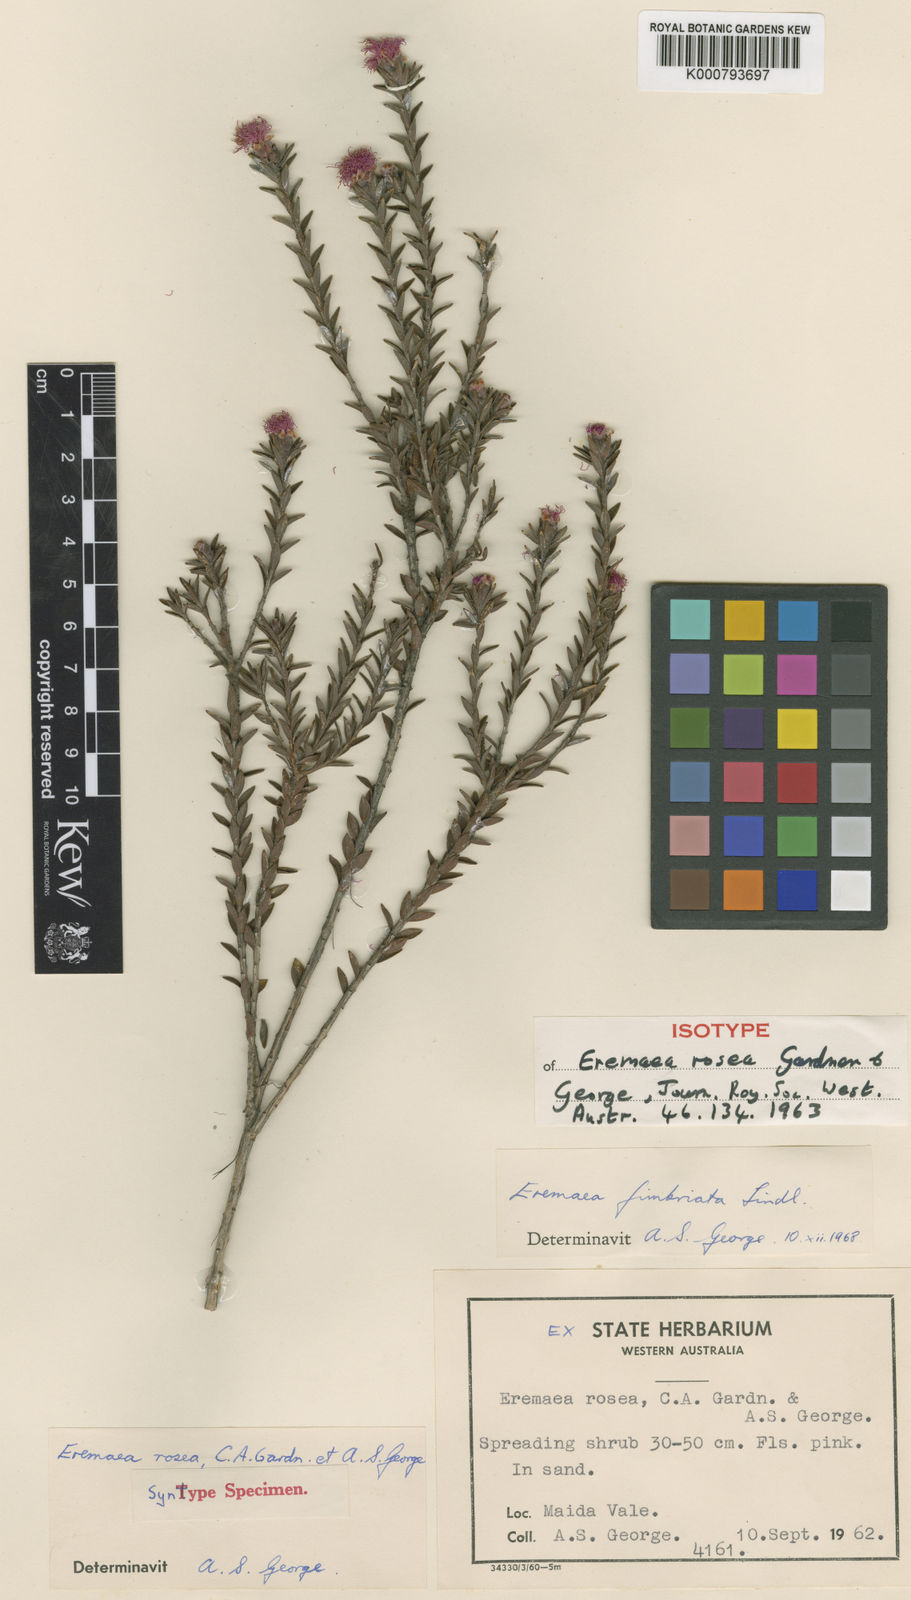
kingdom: Plantae
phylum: Tracheophyta
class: Magnoliopsida
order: Myrtales
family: Myrtaceae
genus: Melaleuca
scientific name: Melaleuca thysanota
